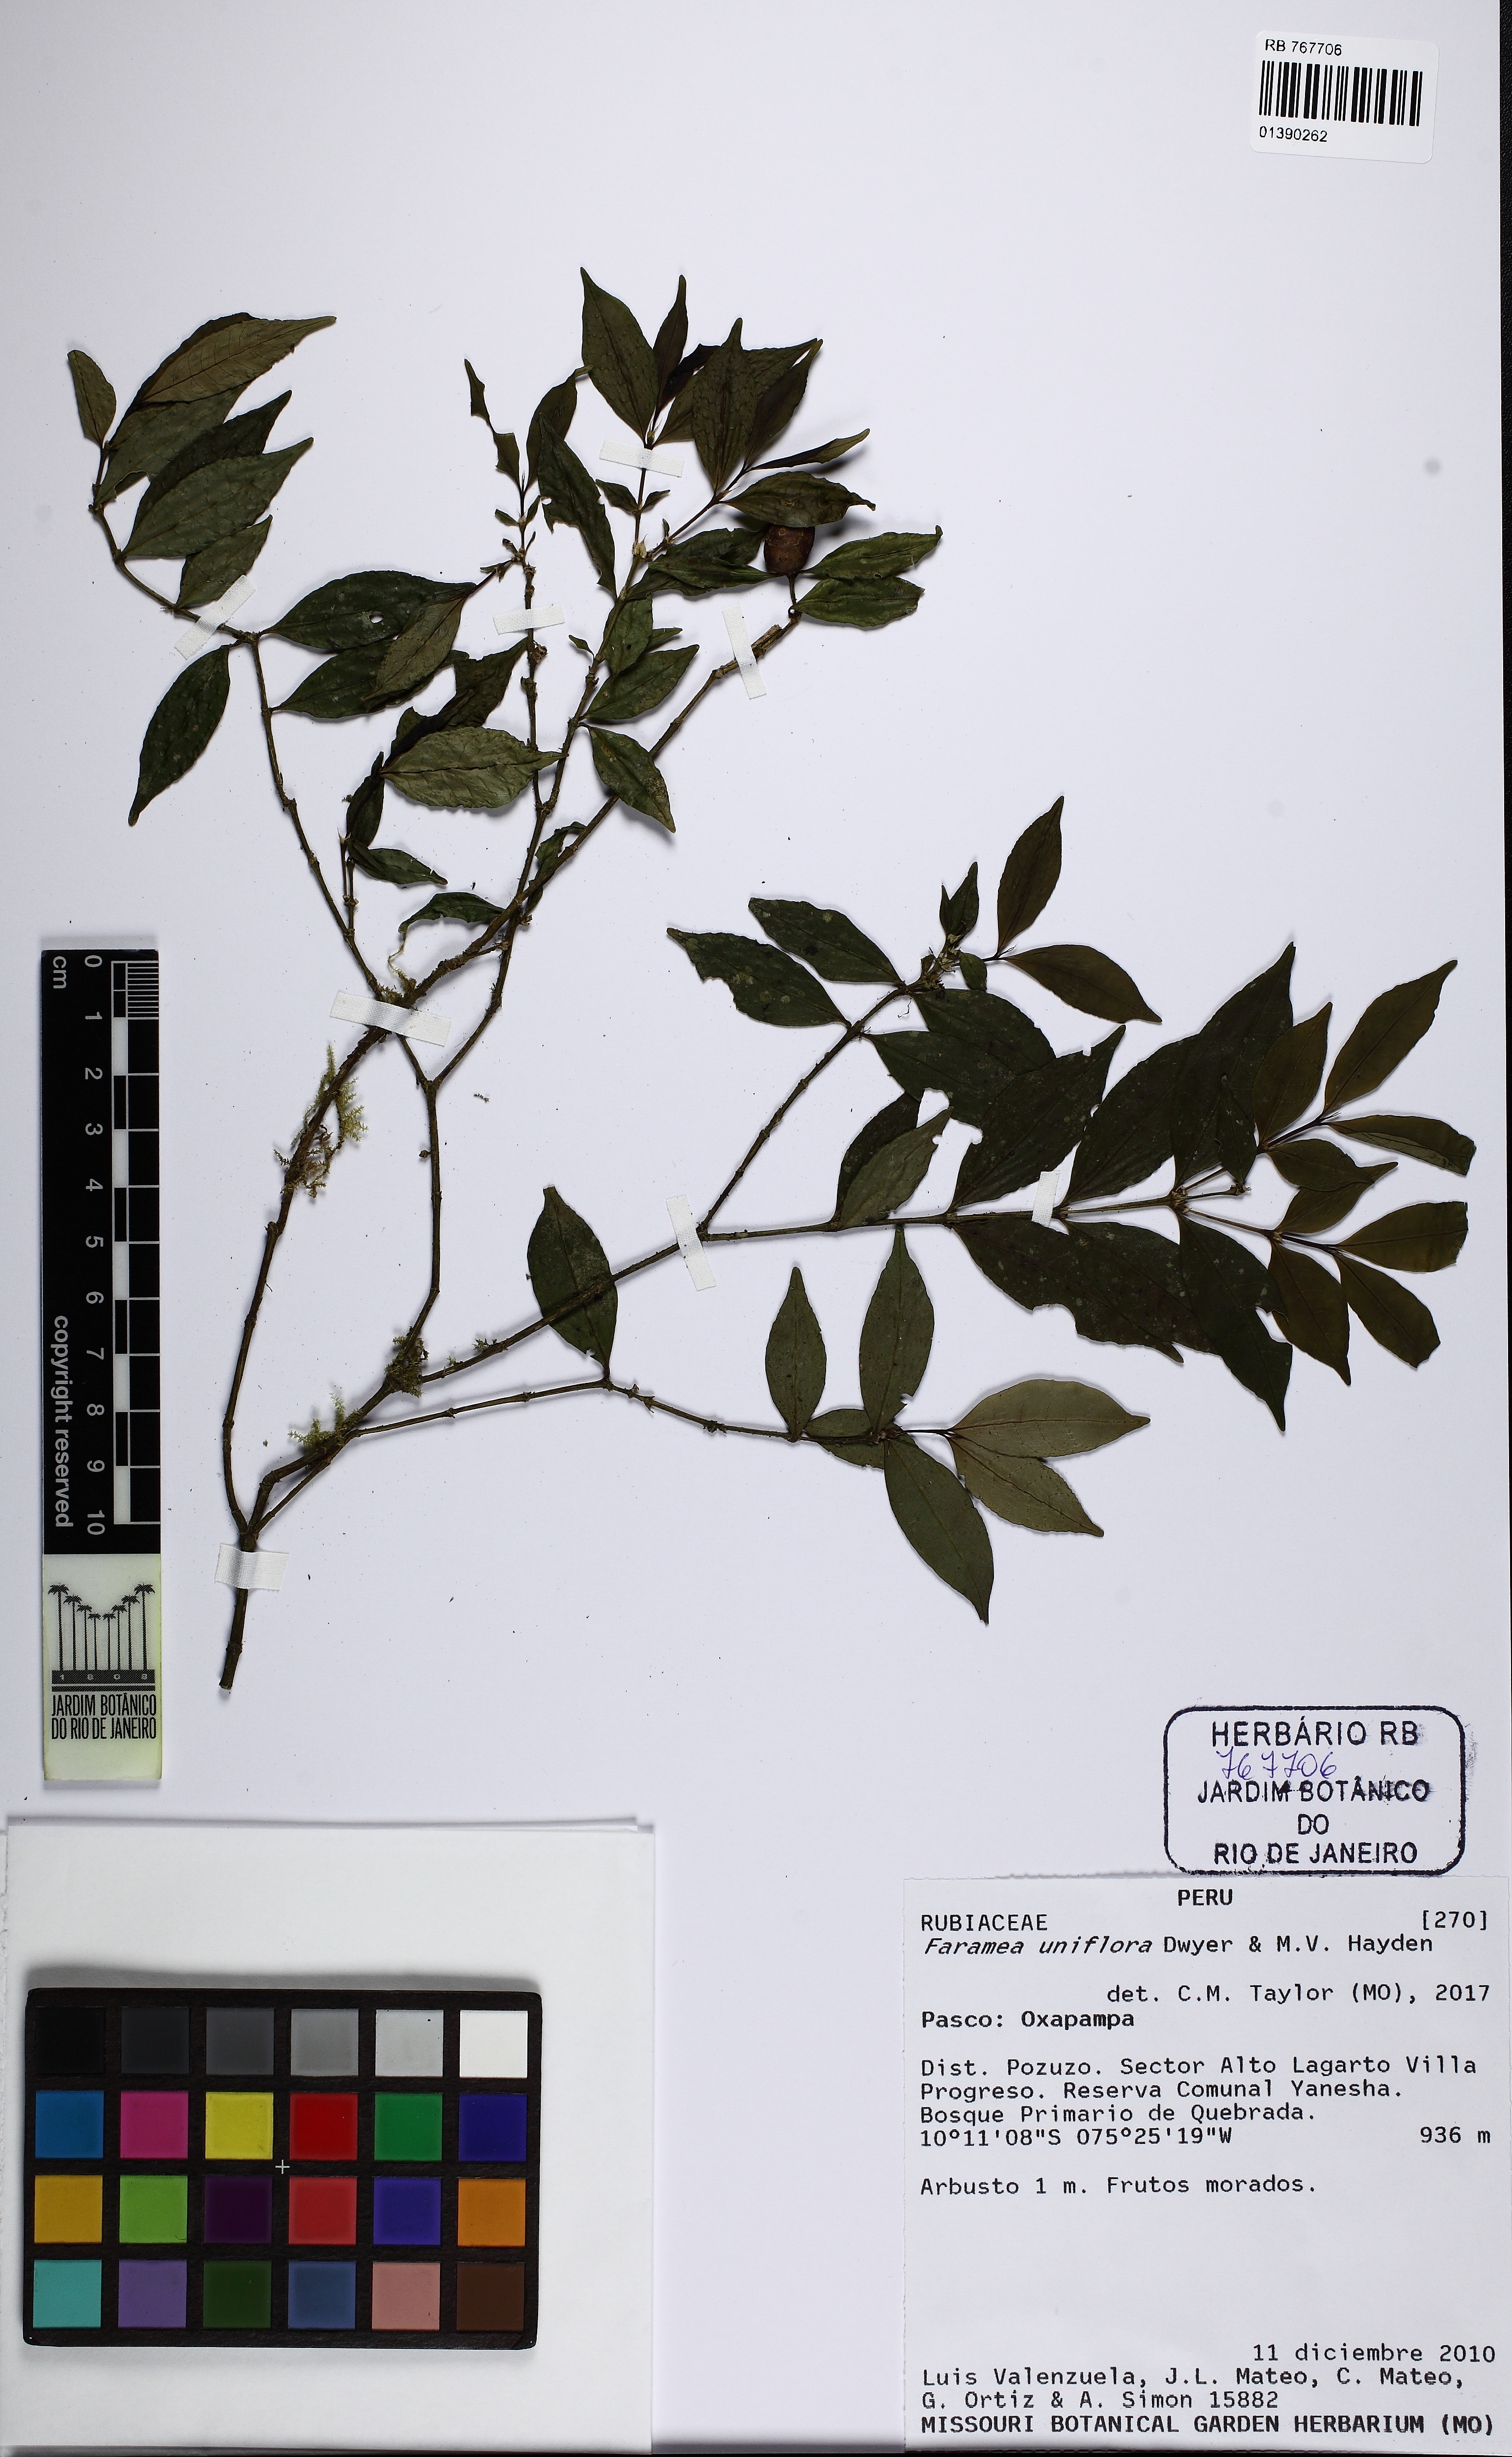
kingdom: Plantae
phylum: Tracheophyta
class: Magnoliopsida
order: Gentianales
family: Rubiaceae
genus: Faramea
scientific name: Faramea uniflora
